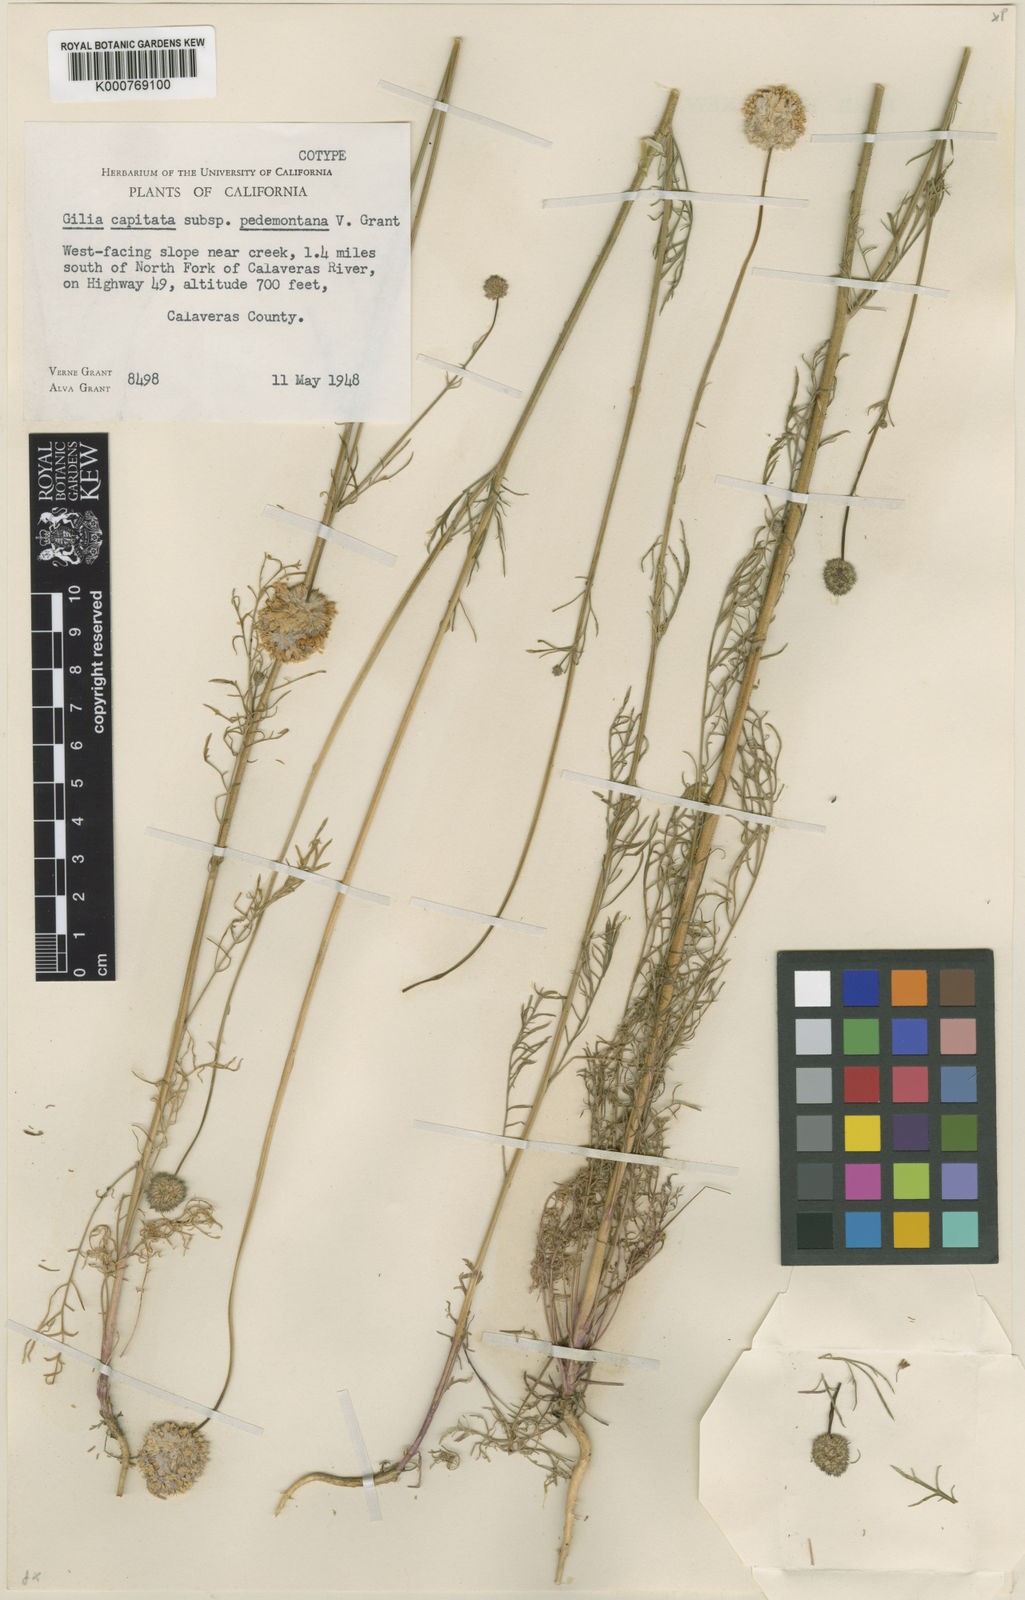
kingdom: Plantae
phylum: Tracheophyta
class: Magnoliopsida
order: Ericales
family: Polemoniaceae
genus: Gilia
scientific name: Gilia capitata
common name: Bluehead gilia
